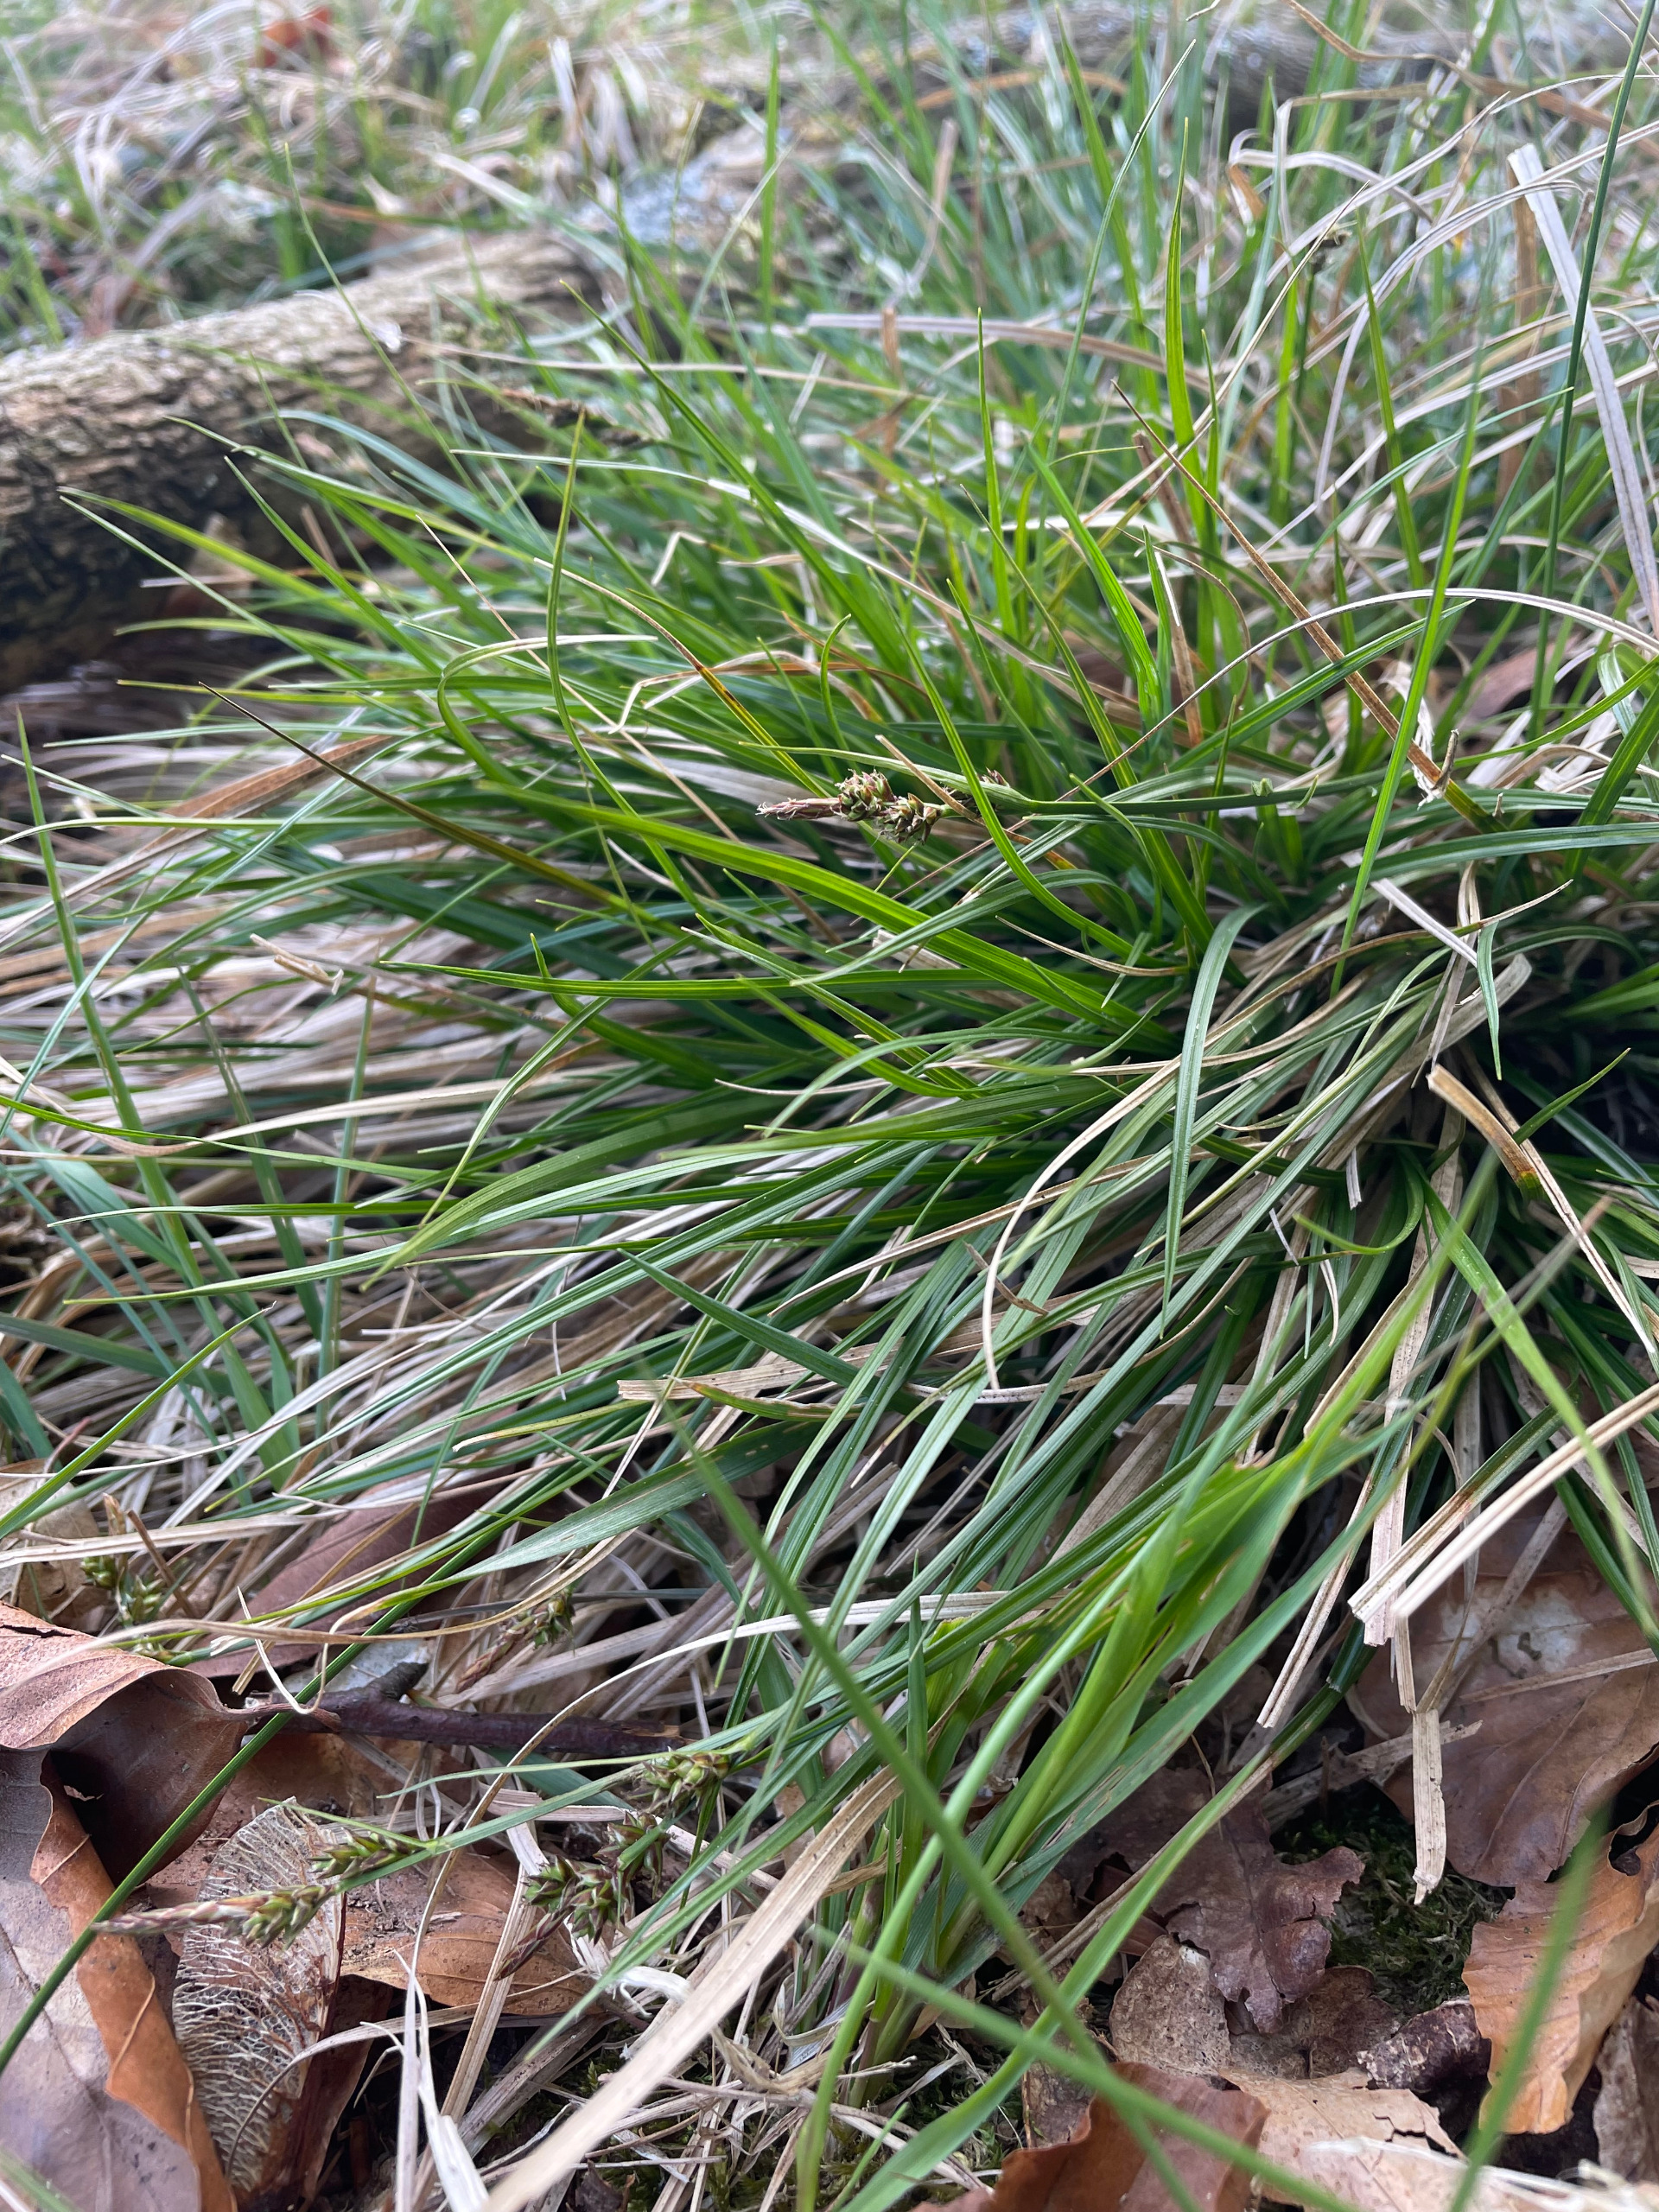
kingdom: Plantae
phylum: Tracheophyta
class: Liliopsida
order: Poales
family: Cyperaceae
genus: Carex
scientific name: Carex pilulifera
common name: Pille-star
